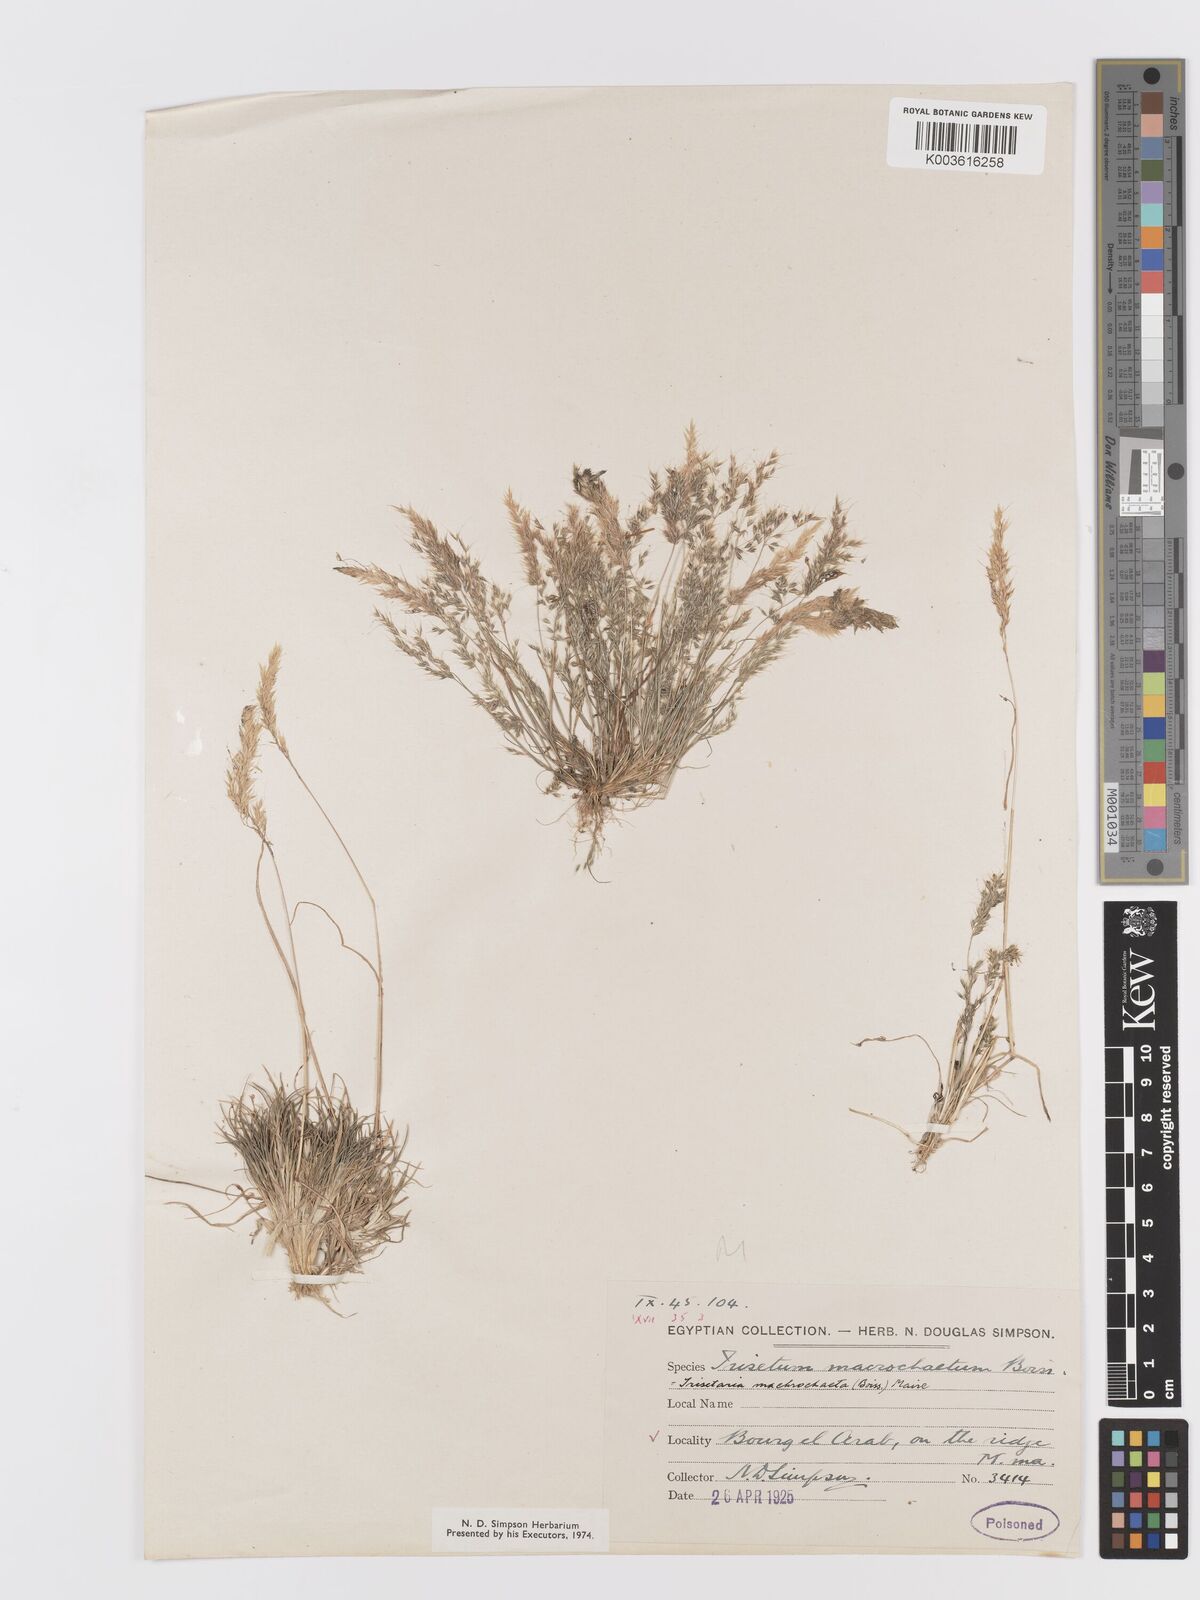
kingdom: Plantae
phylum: Tracheophyta
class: Liliopsida
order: Poales
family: Poaceae
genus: Trisetaria
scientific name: Trisetaria macrochaeta
